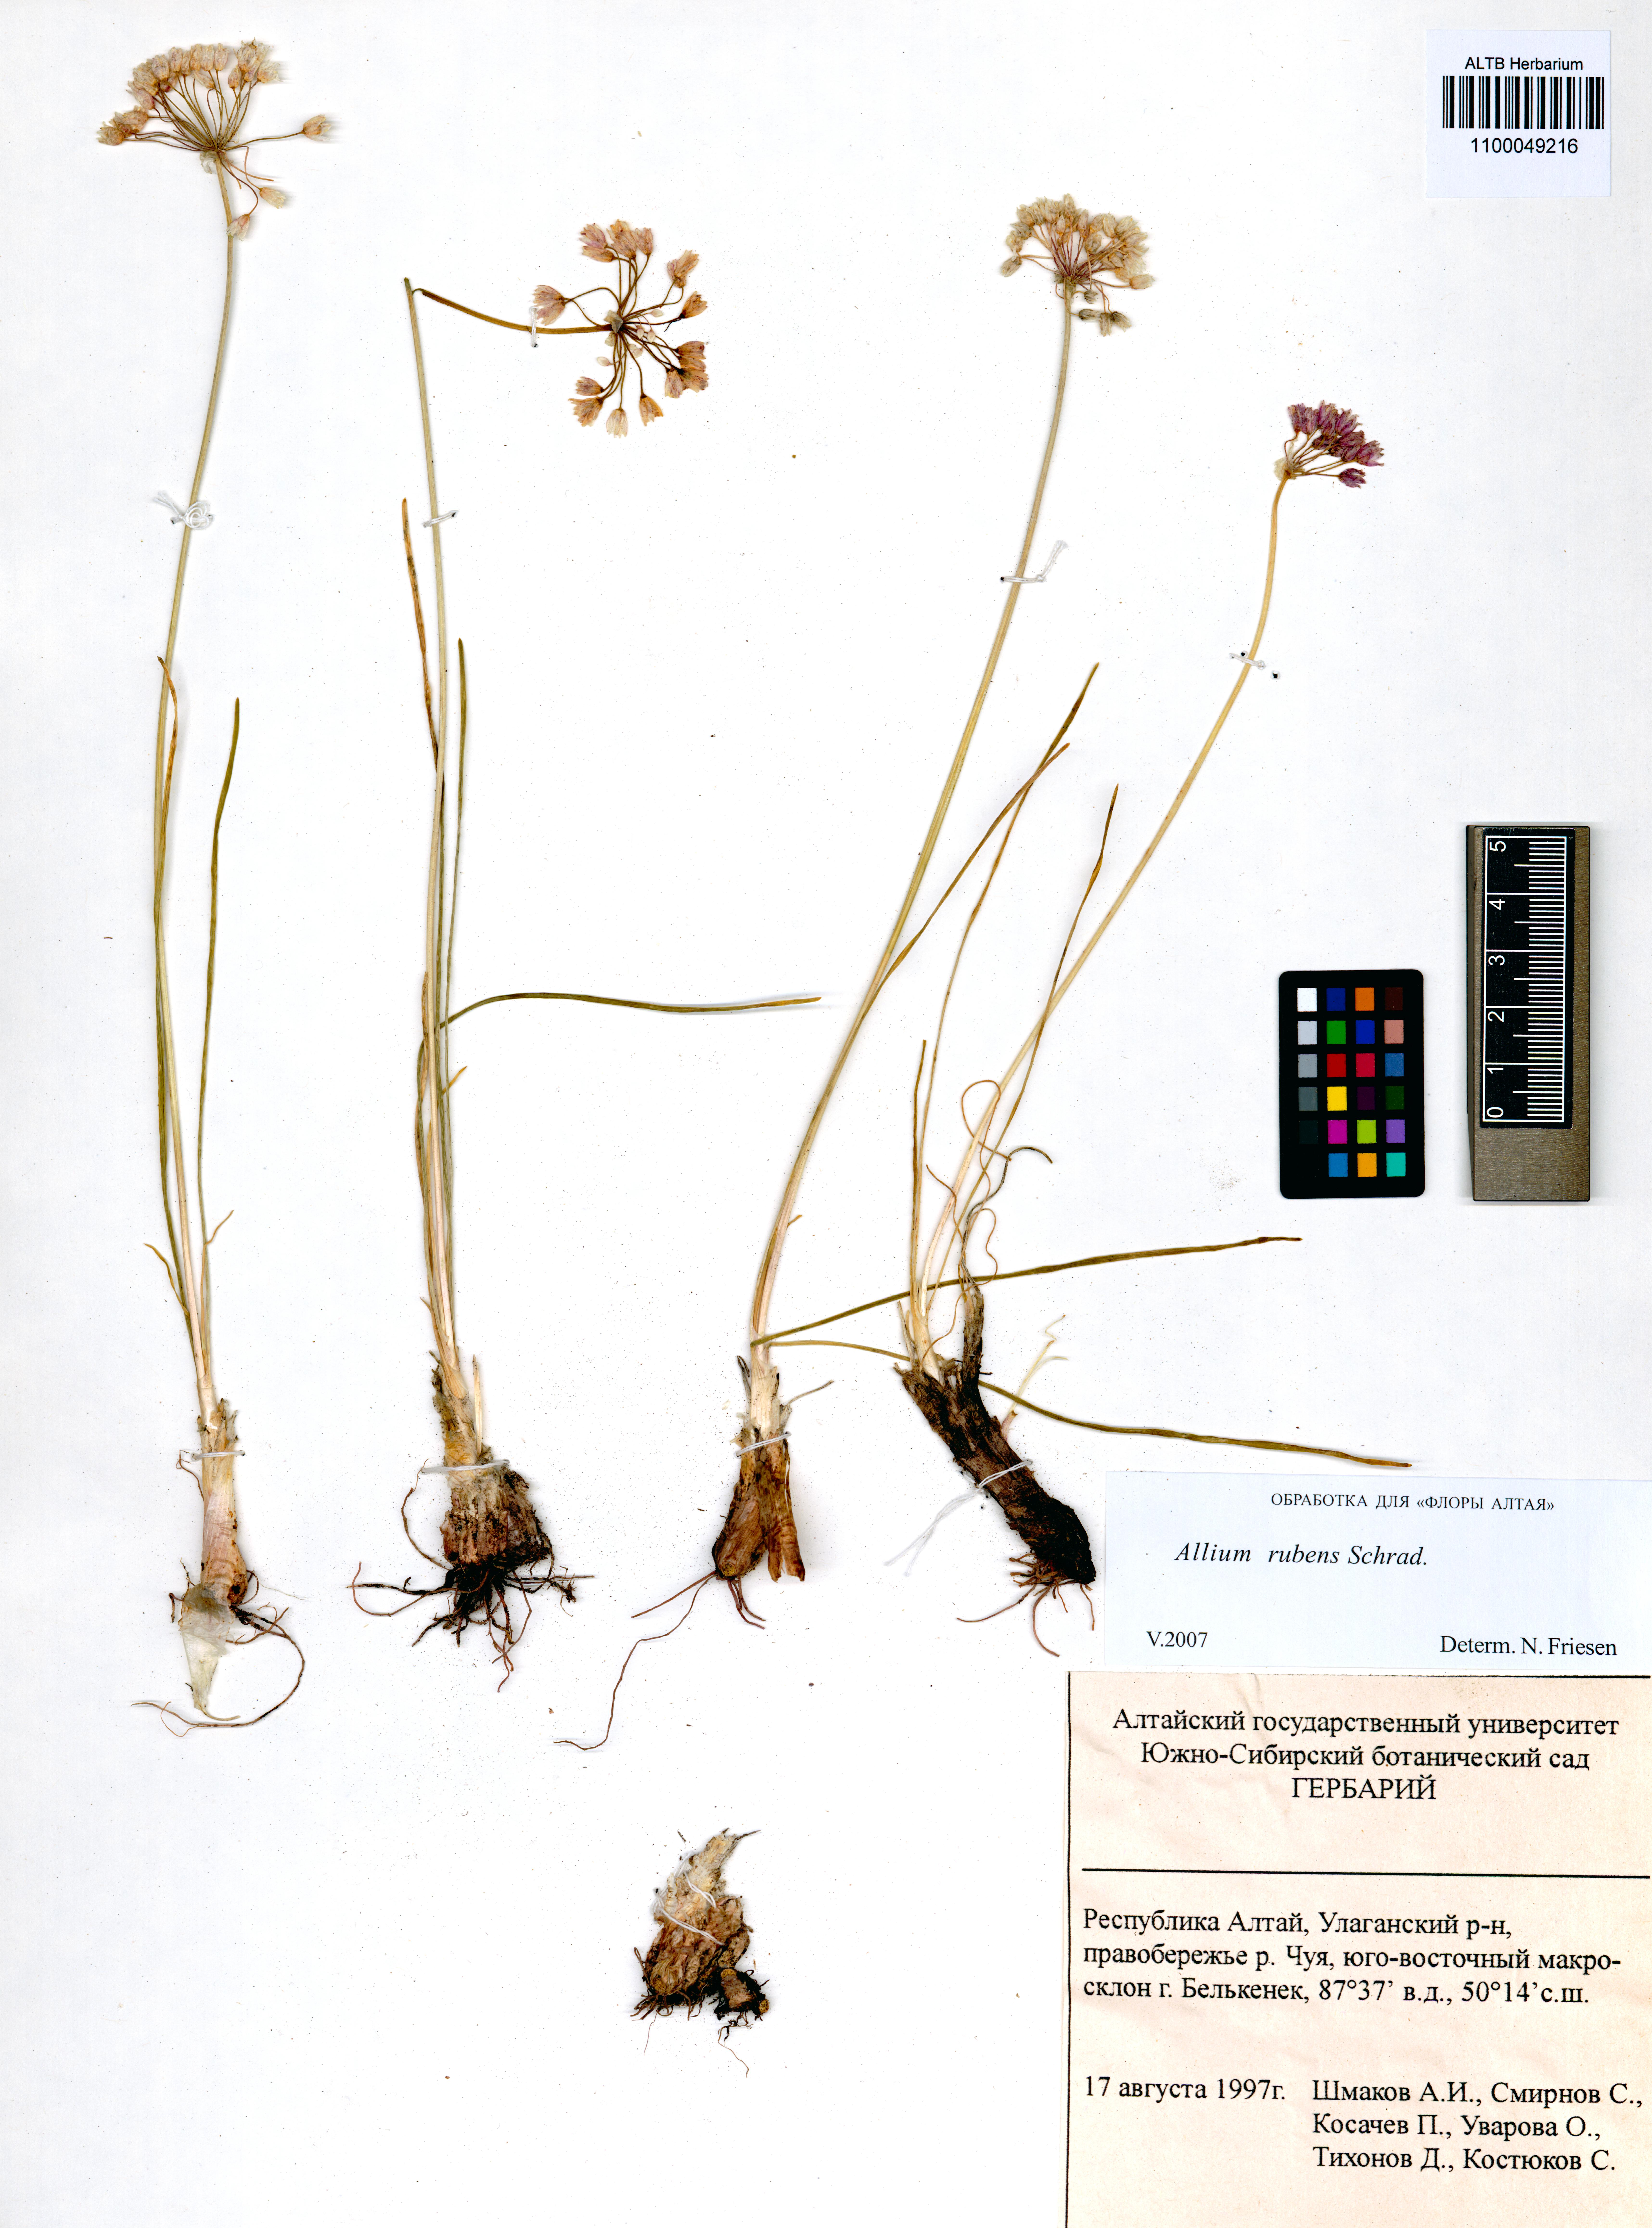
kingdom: Plantae
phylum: Tracheophyta
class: Liliopsida
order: Asparagales
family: Amaryllidaceae
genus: Allium
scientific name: Allium rubens
